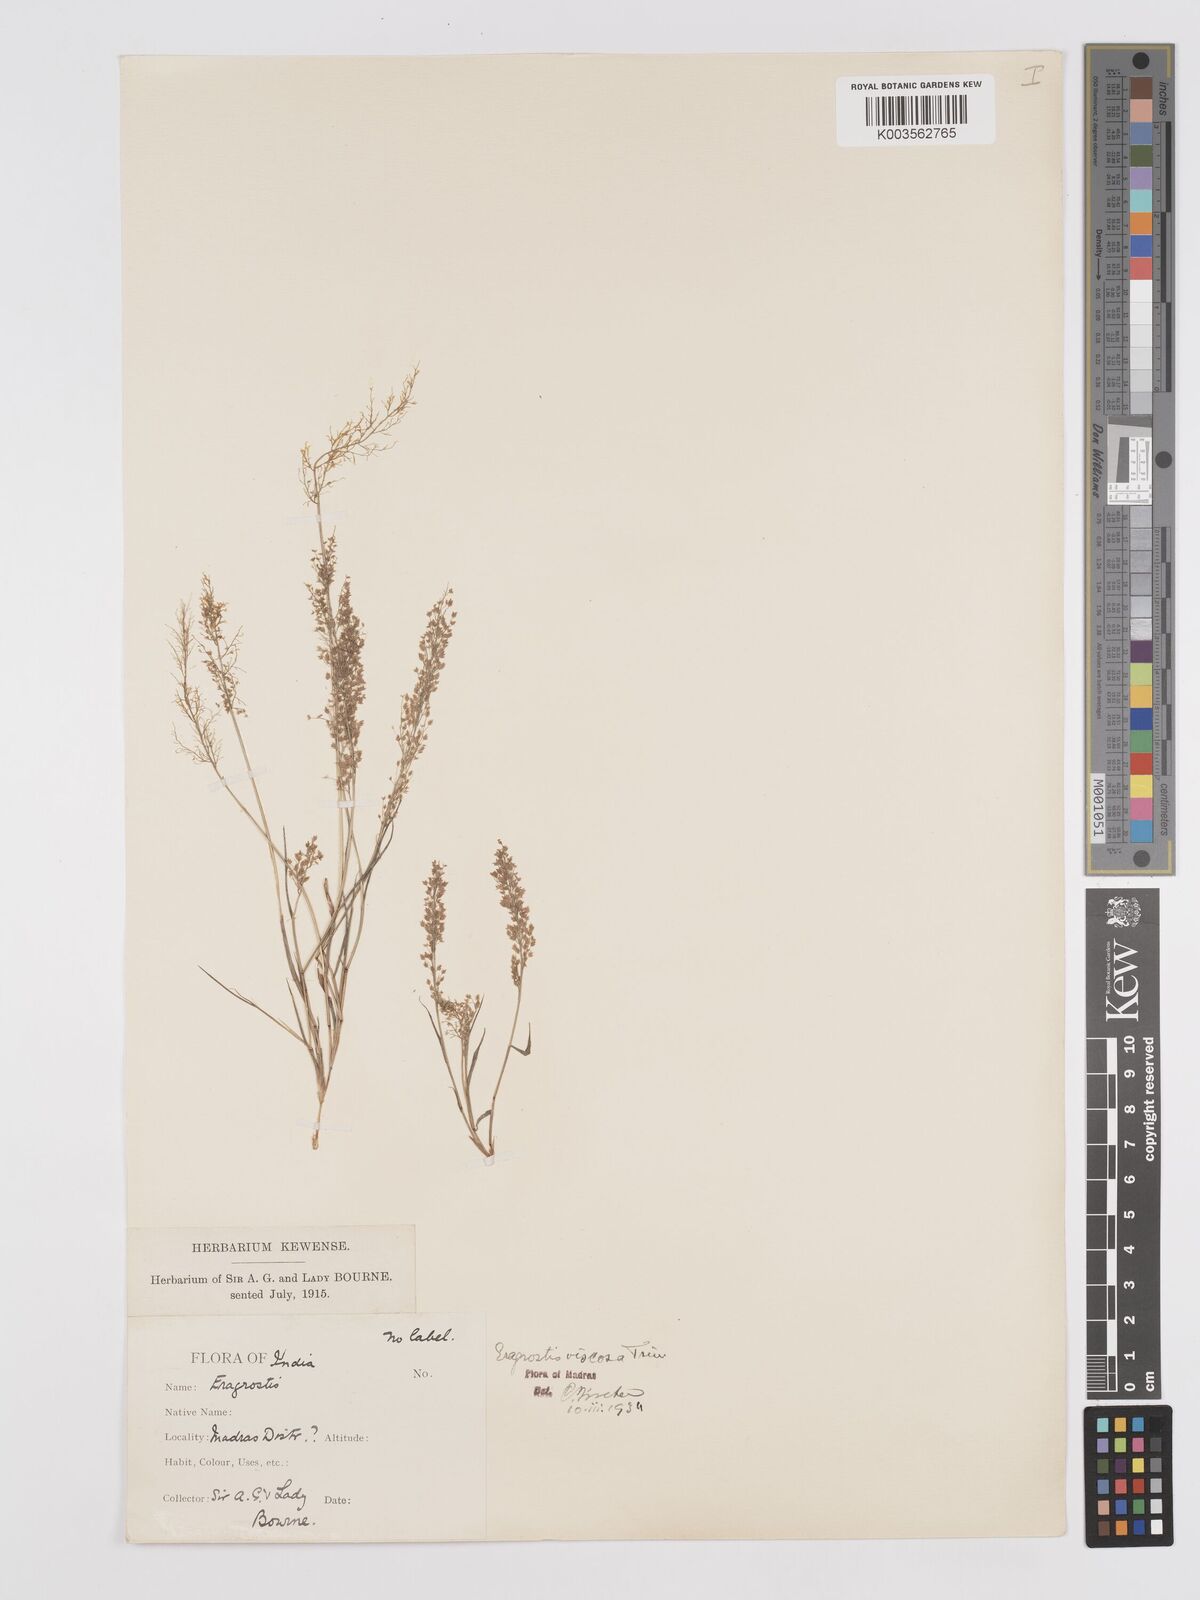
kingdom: Plantae
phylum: Tracheophyta
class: Liliopsida
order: Poales
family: Poaceae
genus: Eragrostis
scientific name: Eragrostis viscosa
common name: Sticky love grass
